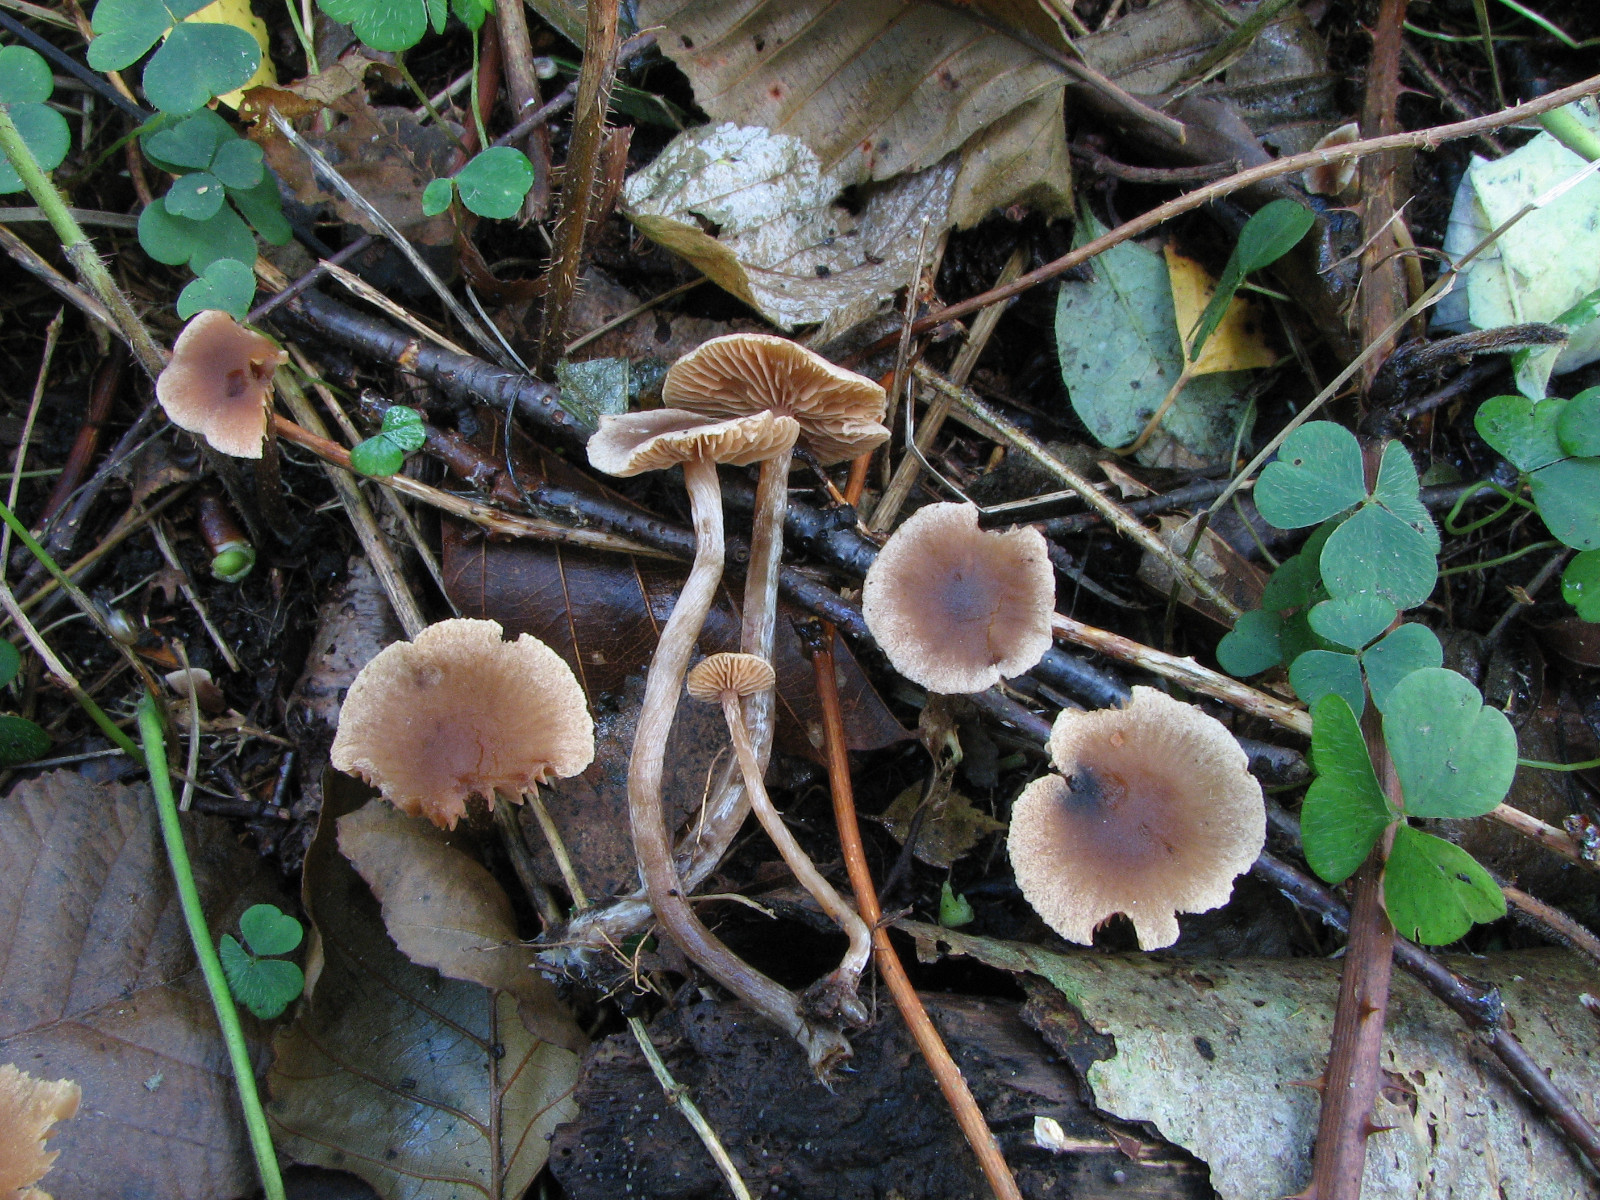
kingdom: Fungi
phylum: Basidiomycota
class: Agaricomycetes
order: Agaricales
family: Hymenogastraceae
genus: Naucoria
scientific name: Naucoria sphagneti
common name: lysrandet knaphat
